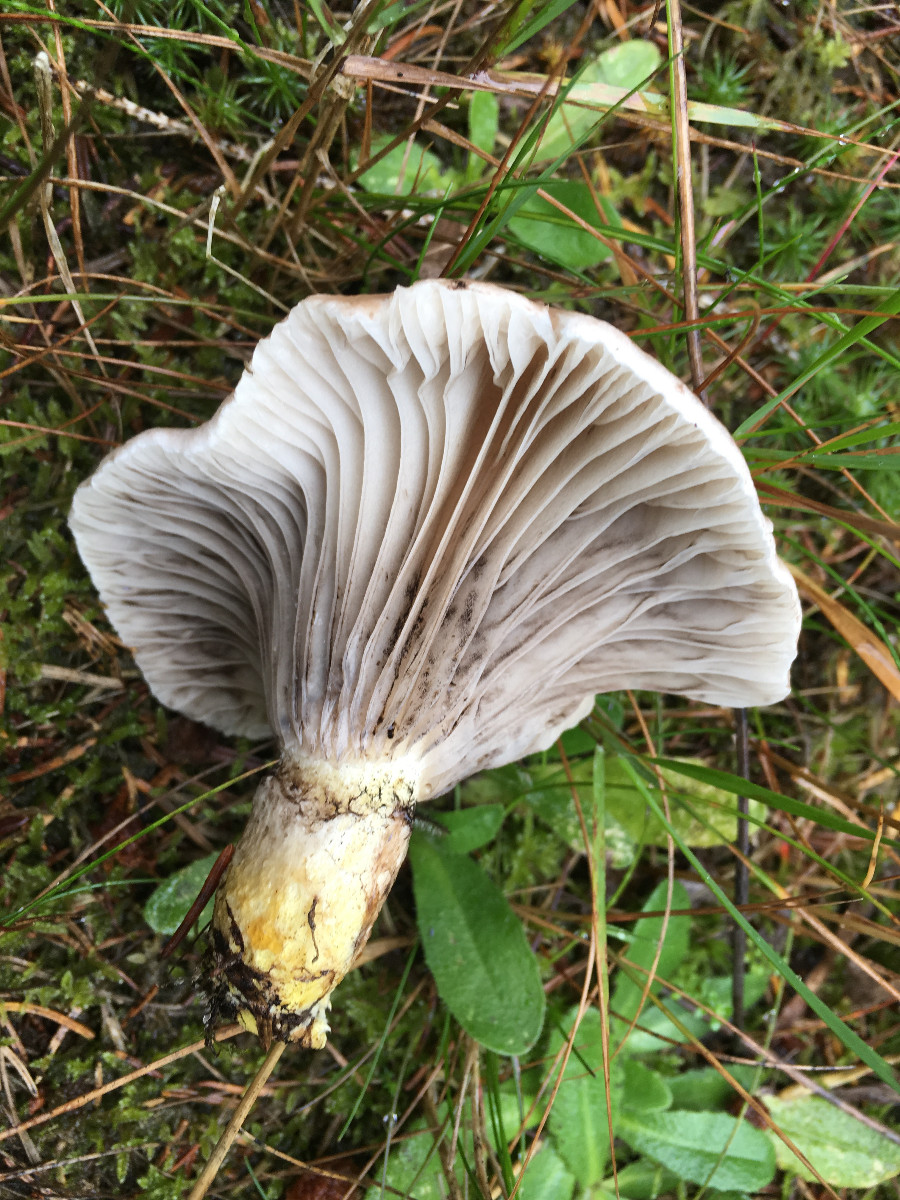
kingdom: Fungi
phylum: Basidiomycota
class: Agaricomycetes
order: Boletales
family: Gomphidiaceae
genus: Gomphidius
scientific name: Gomphidius glutinosus
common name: grå slimslør
